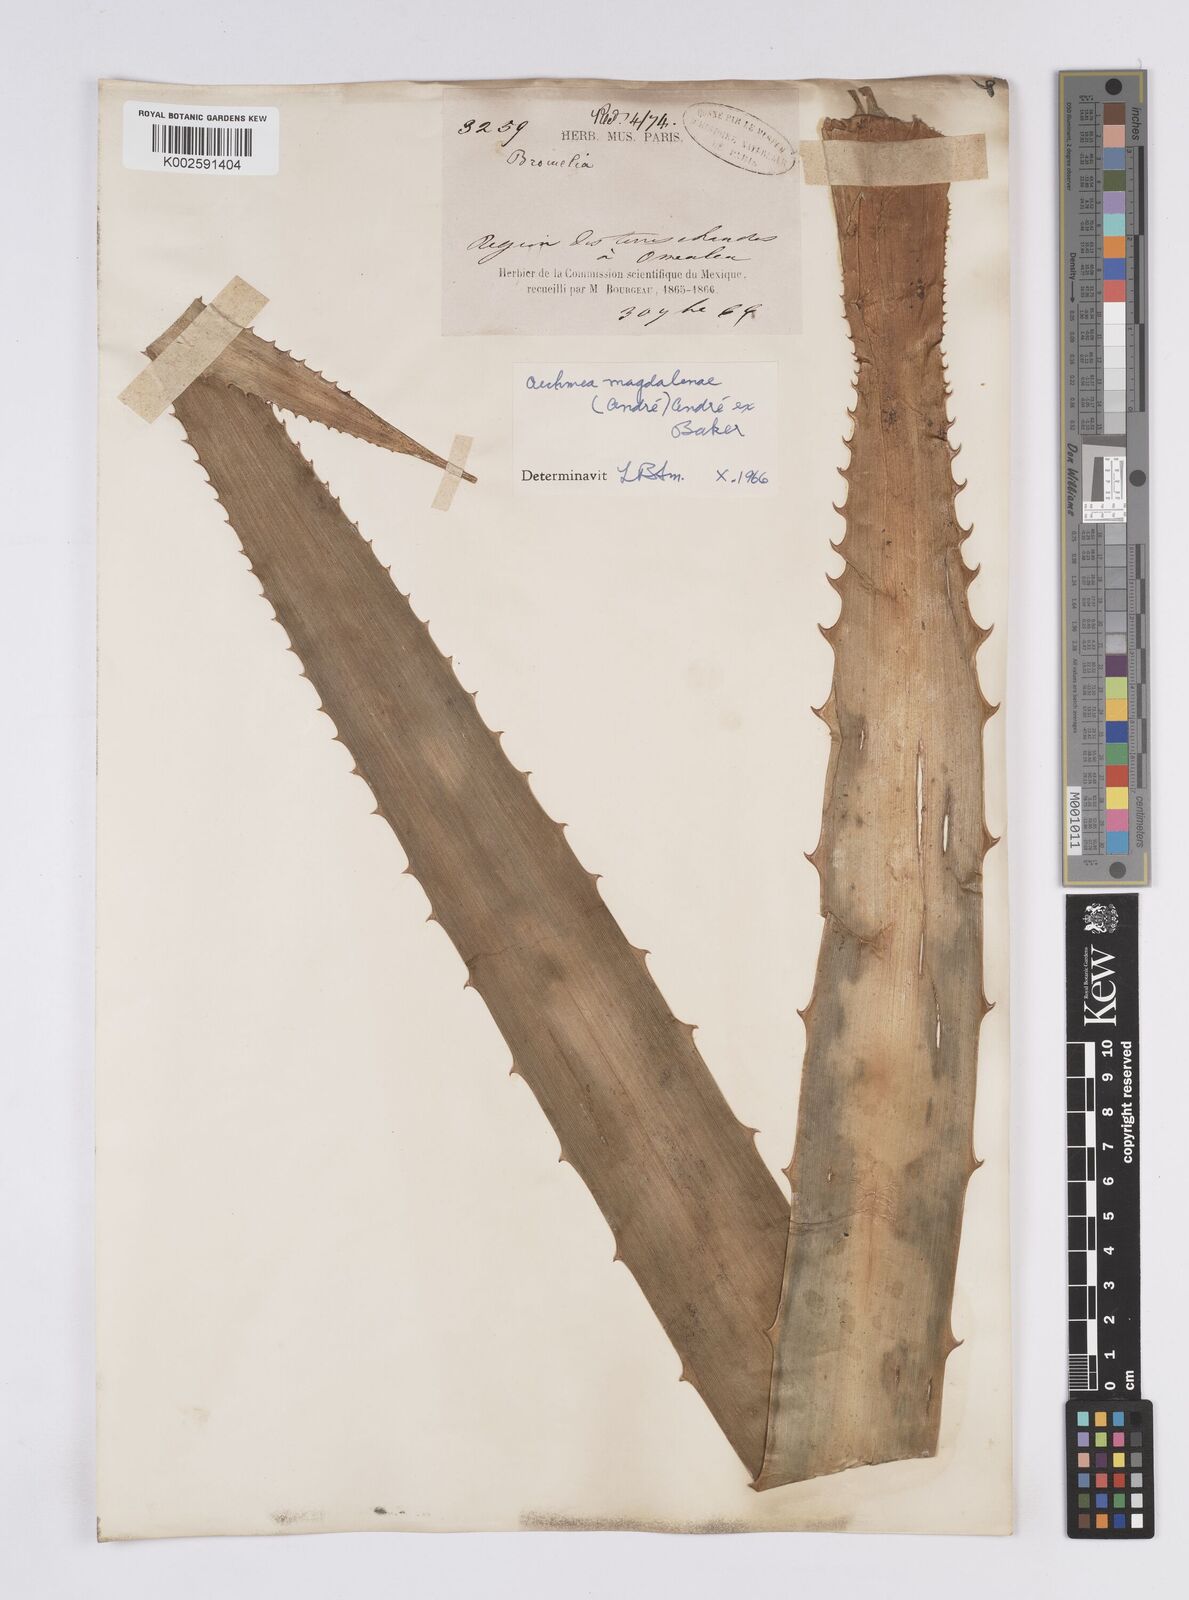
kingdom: Plantae
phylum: Tracheophyta
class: Liliopsida
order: Poales
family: Bromeliaceae
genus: Aechmea
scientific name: Aechmea magdalenae
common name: Arghan
